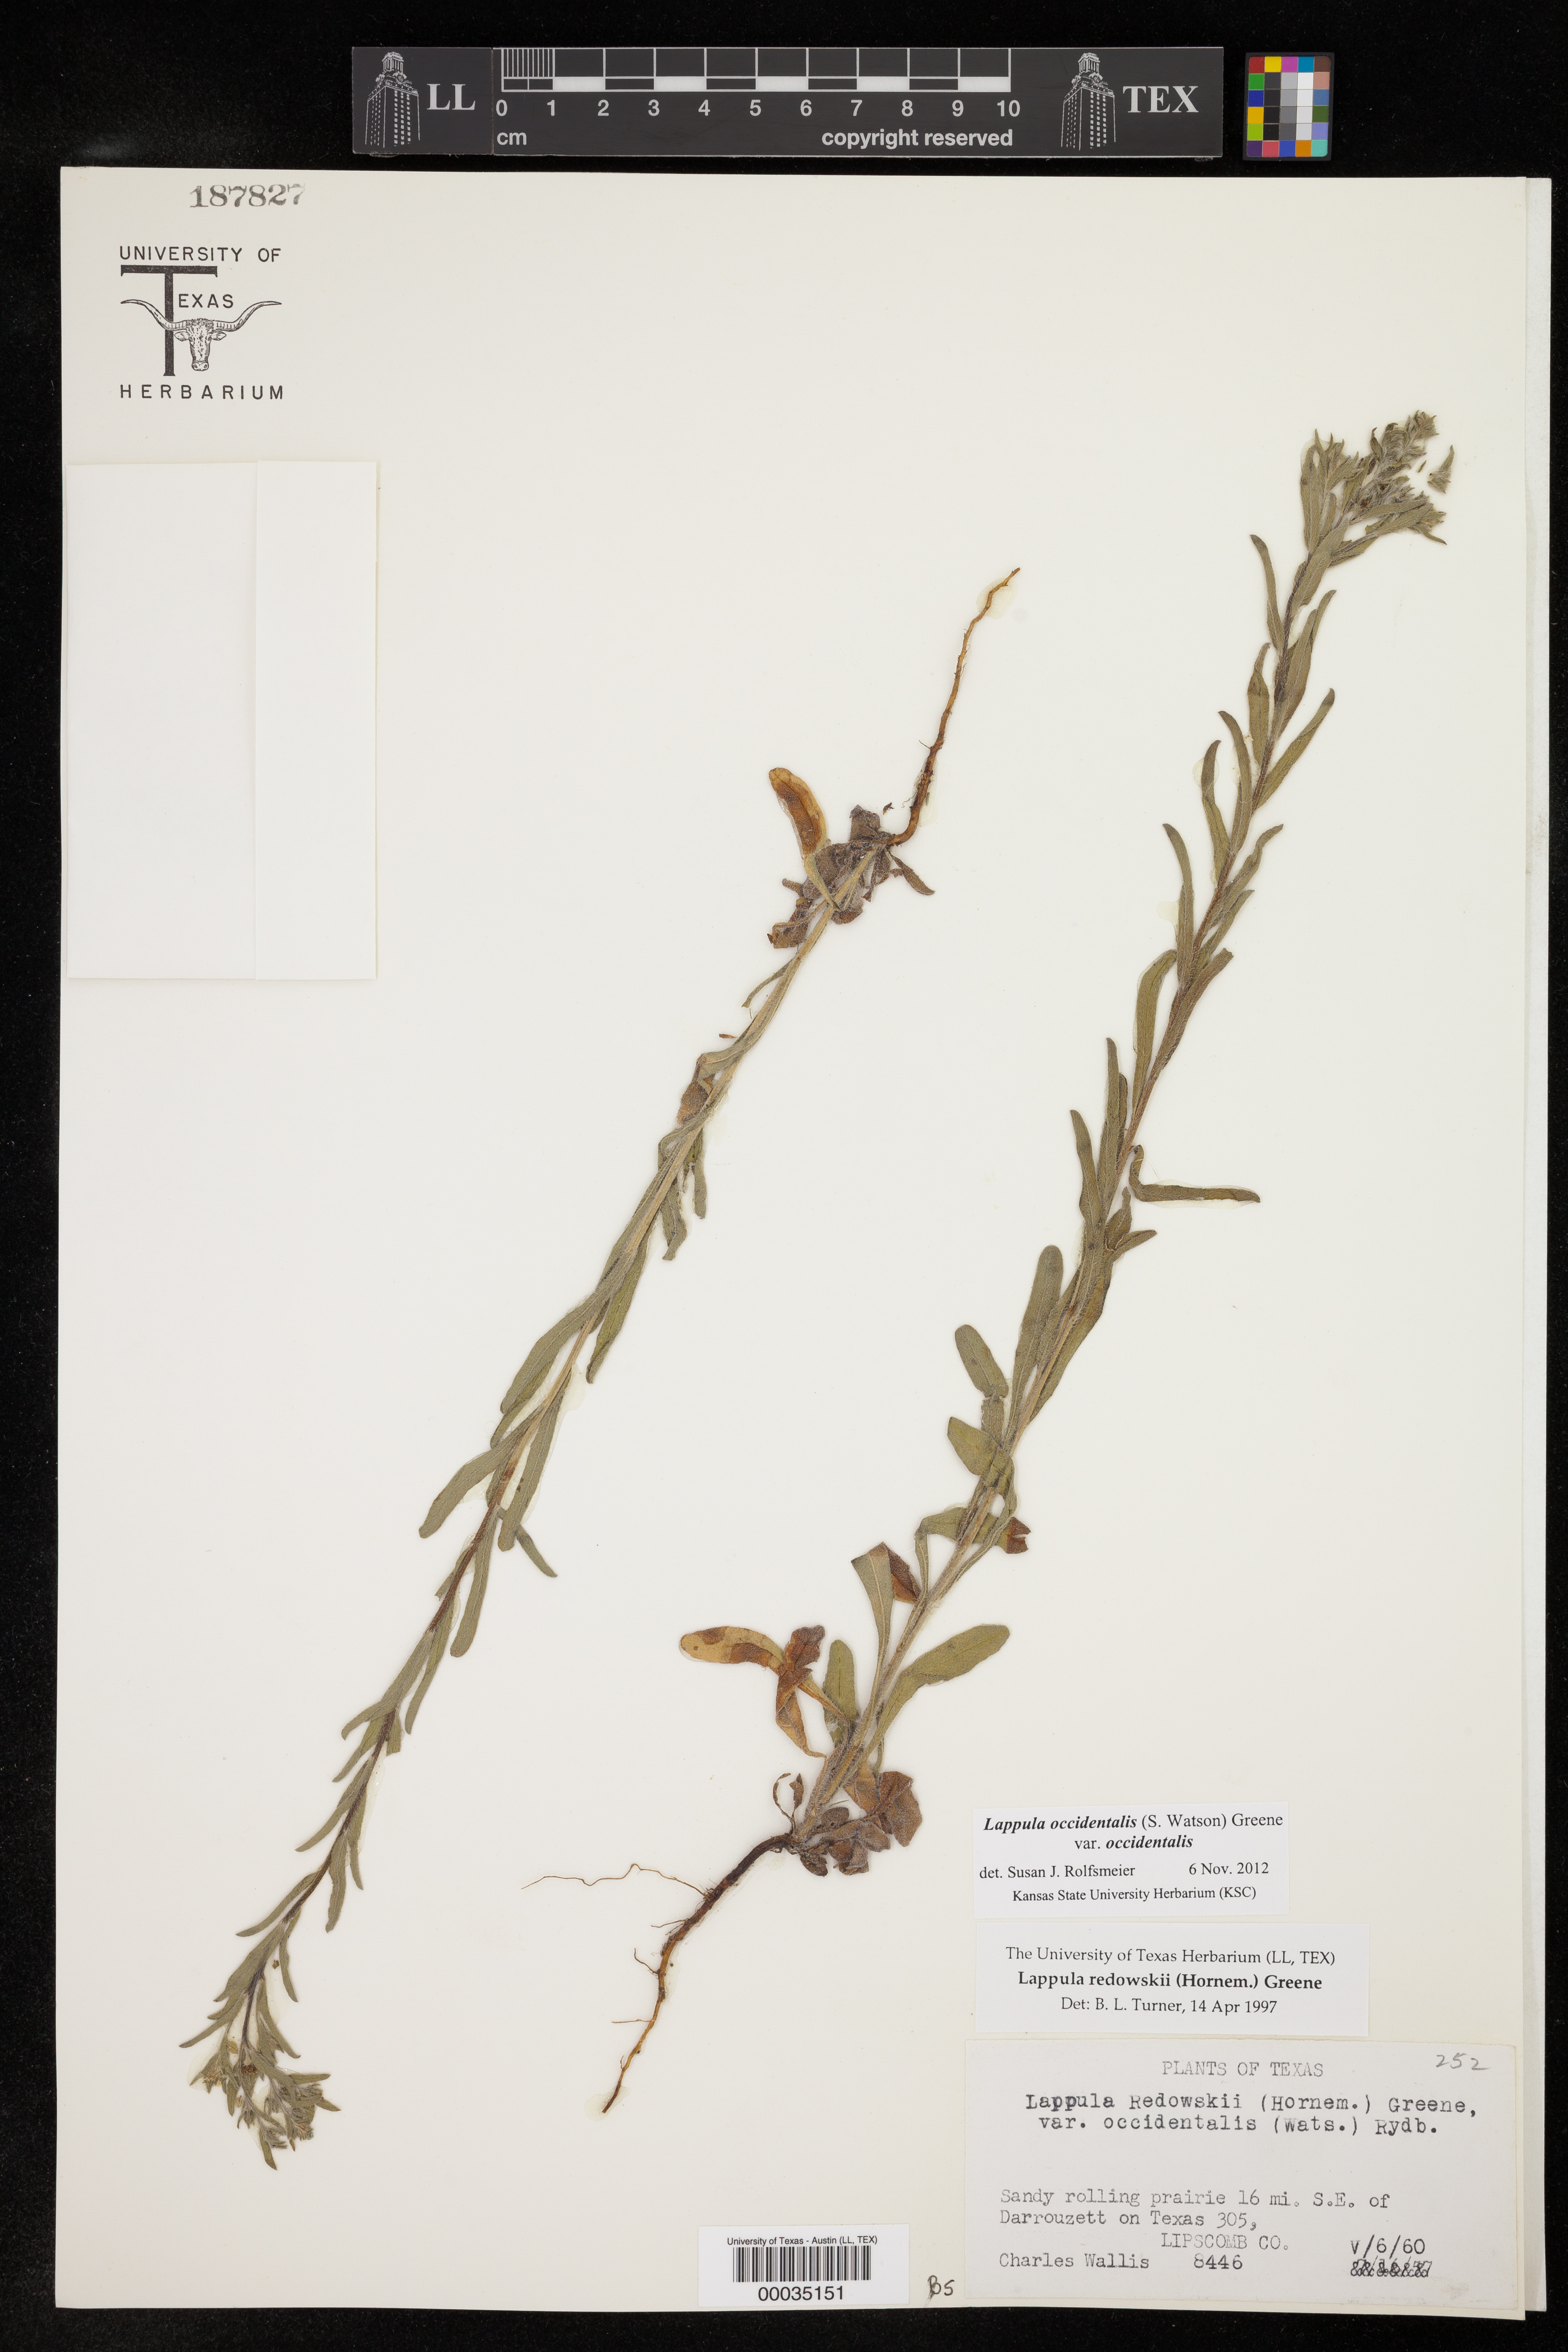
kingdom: Plantae
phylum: Tracheophyta
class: Magnoliopsida
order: Boraginales
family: Boraginaceae
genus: Lappula
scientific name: Lappula occidentalis
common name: Western stickseed
